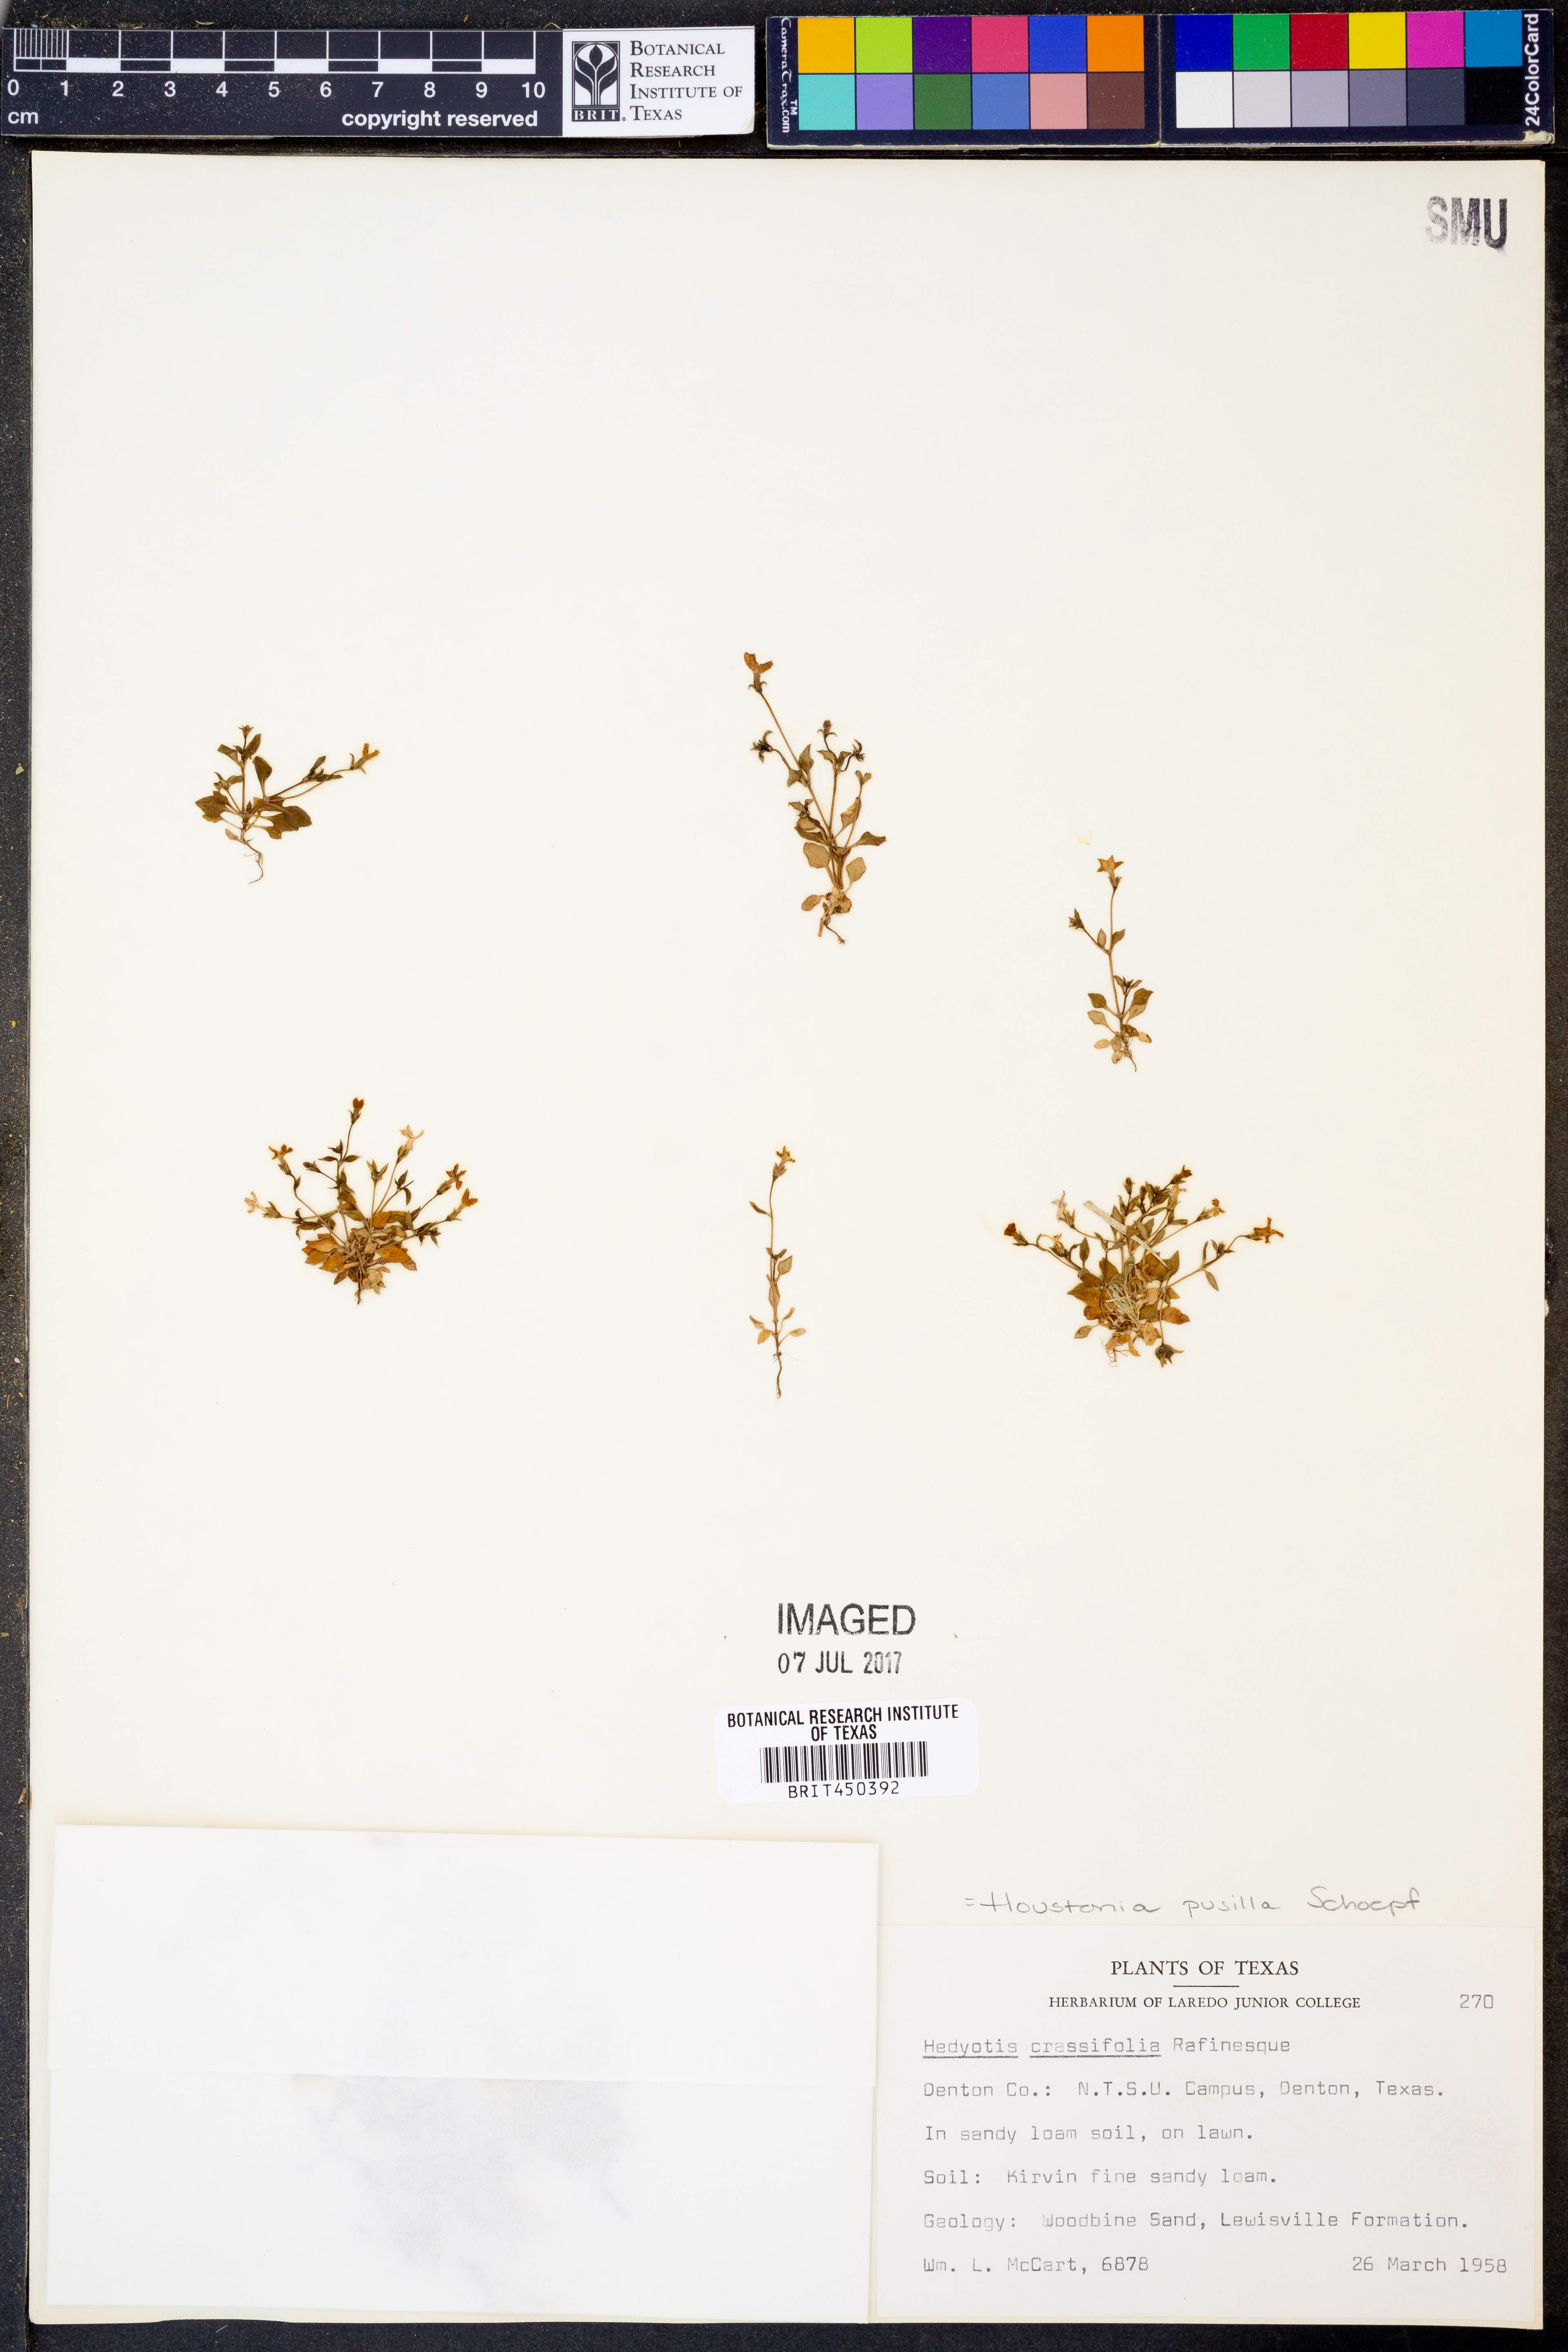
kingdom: Plantae
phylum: Tracheophyta
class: Magnoliopsida
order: Gentianales
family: Rubiaceae
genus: Houstonia
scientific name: Houstonia pusilla
